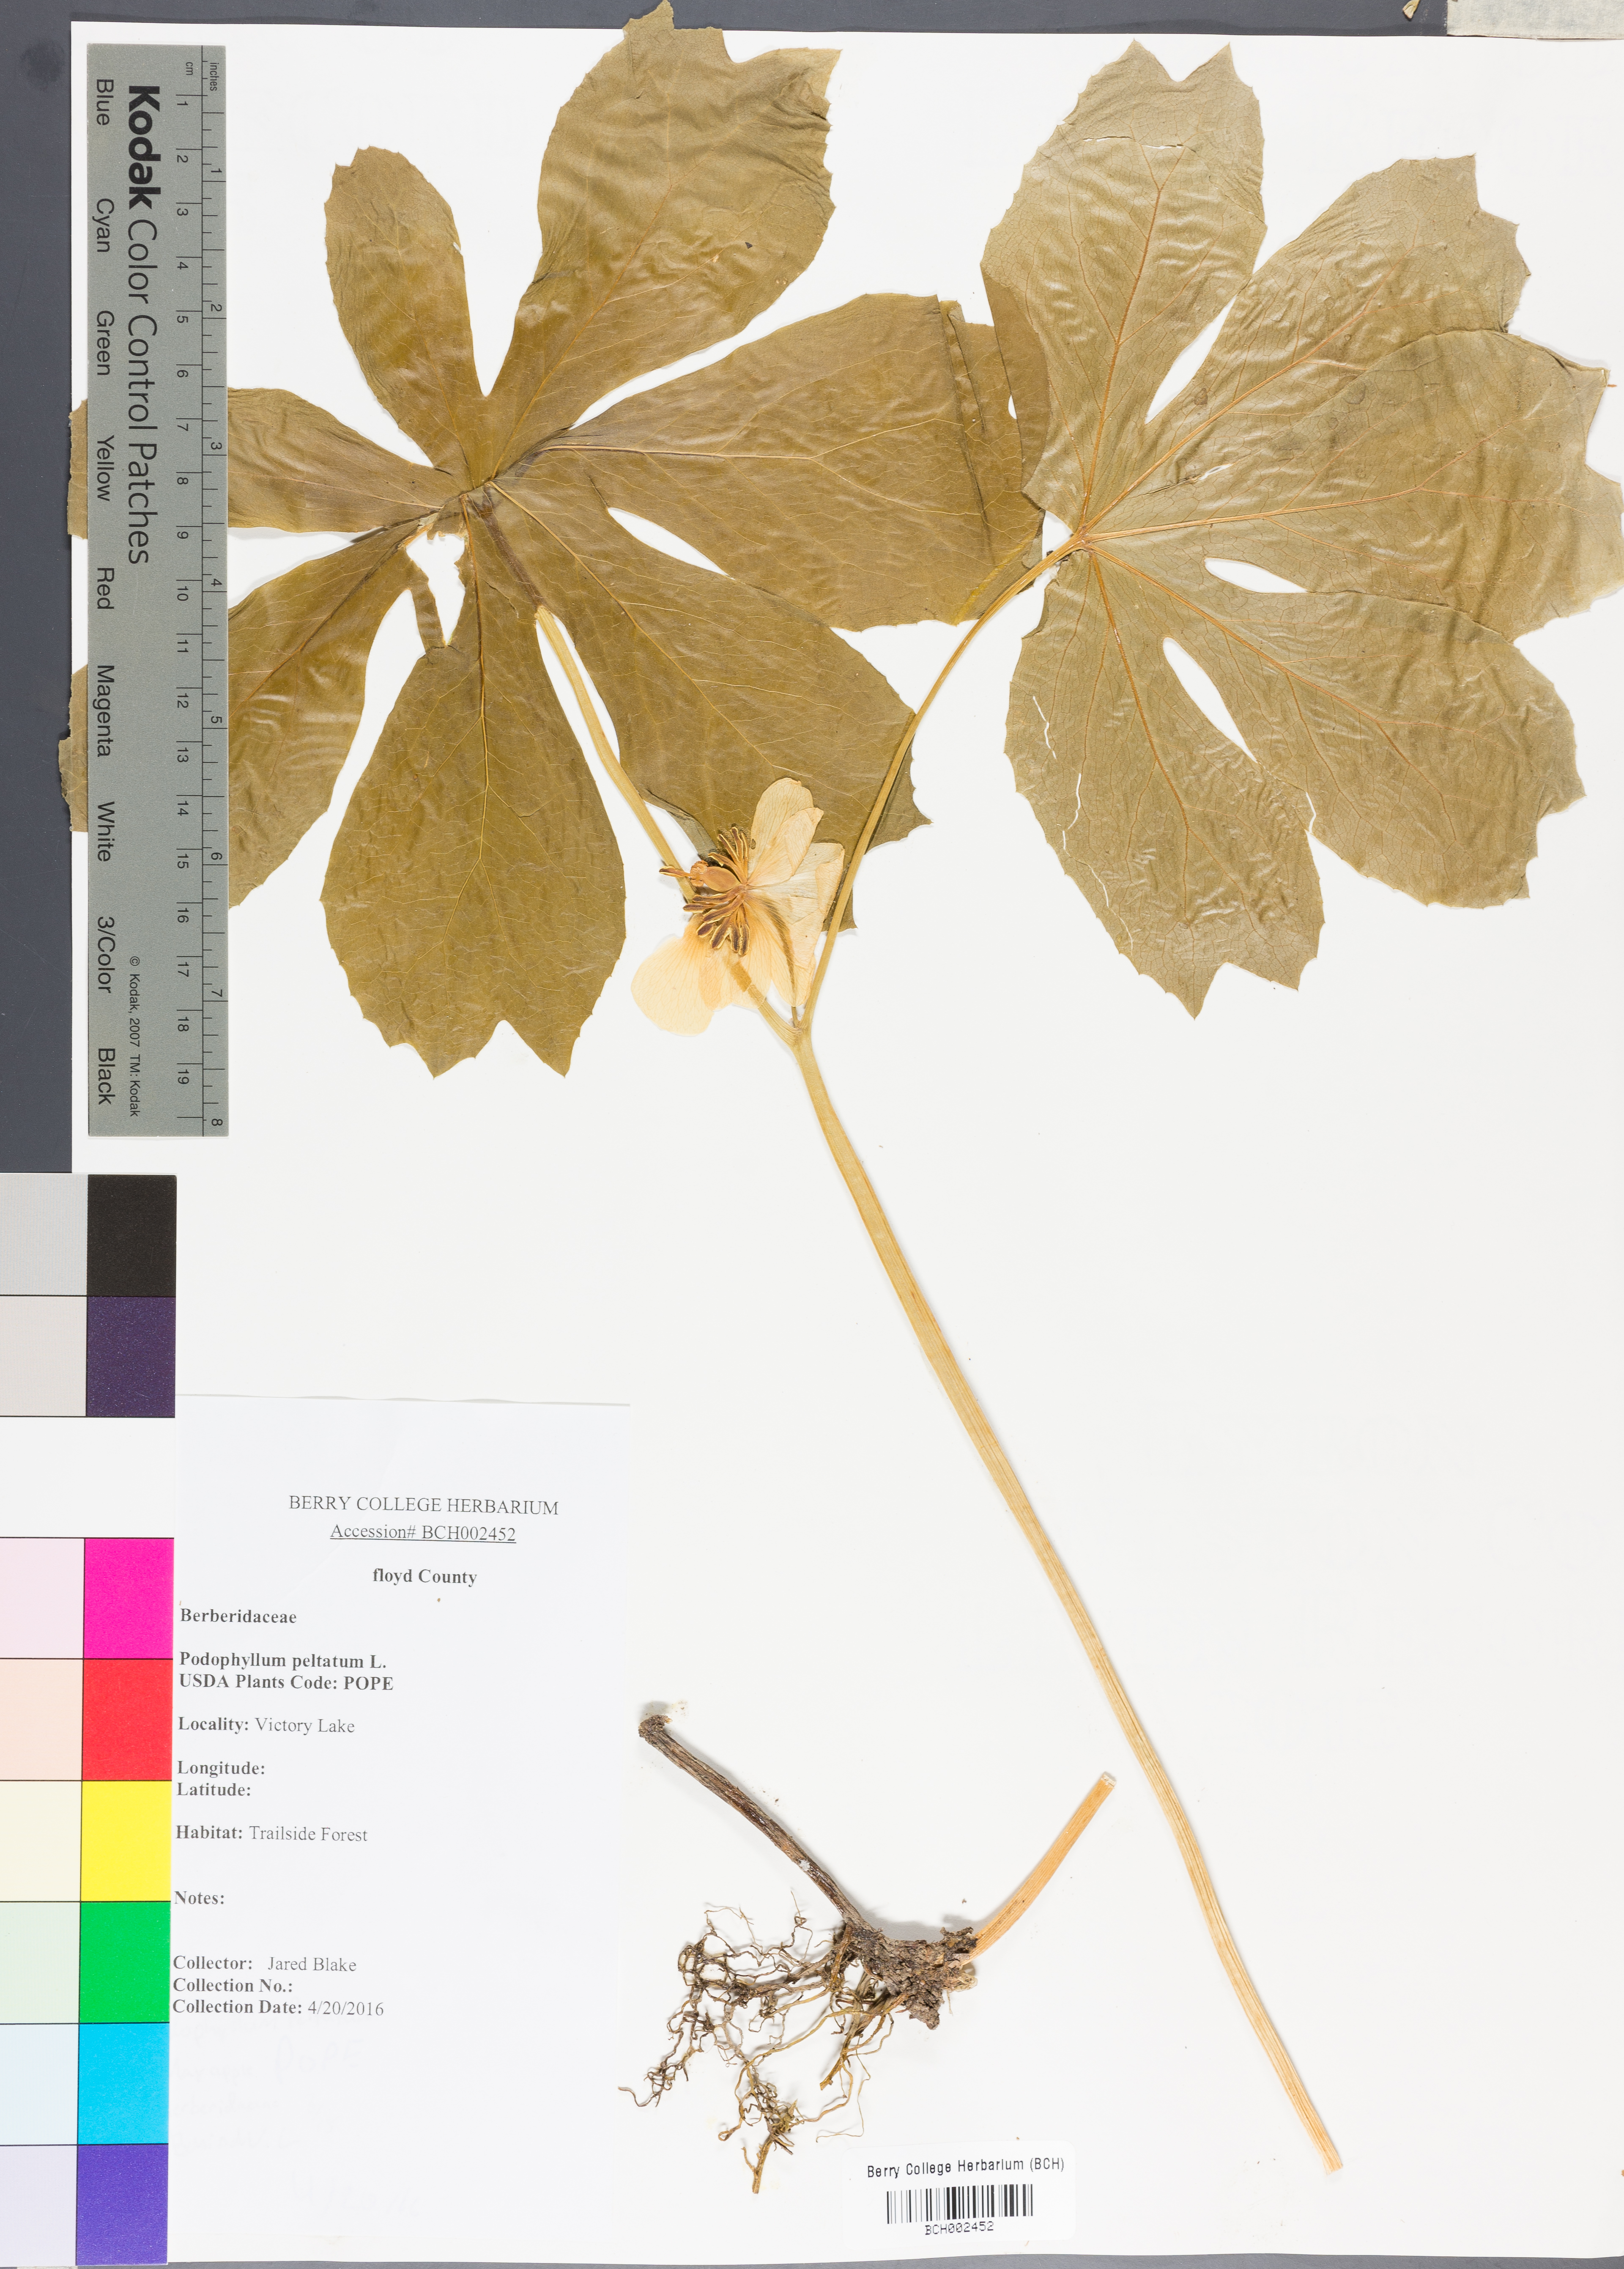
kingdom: Plantae
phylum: Tracheophyta
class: Magnoliopsida
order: Ranunculales
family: Berberidaceae
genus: Podophyllum
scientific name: Podophyllum peltatum
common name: Wild mandrake
